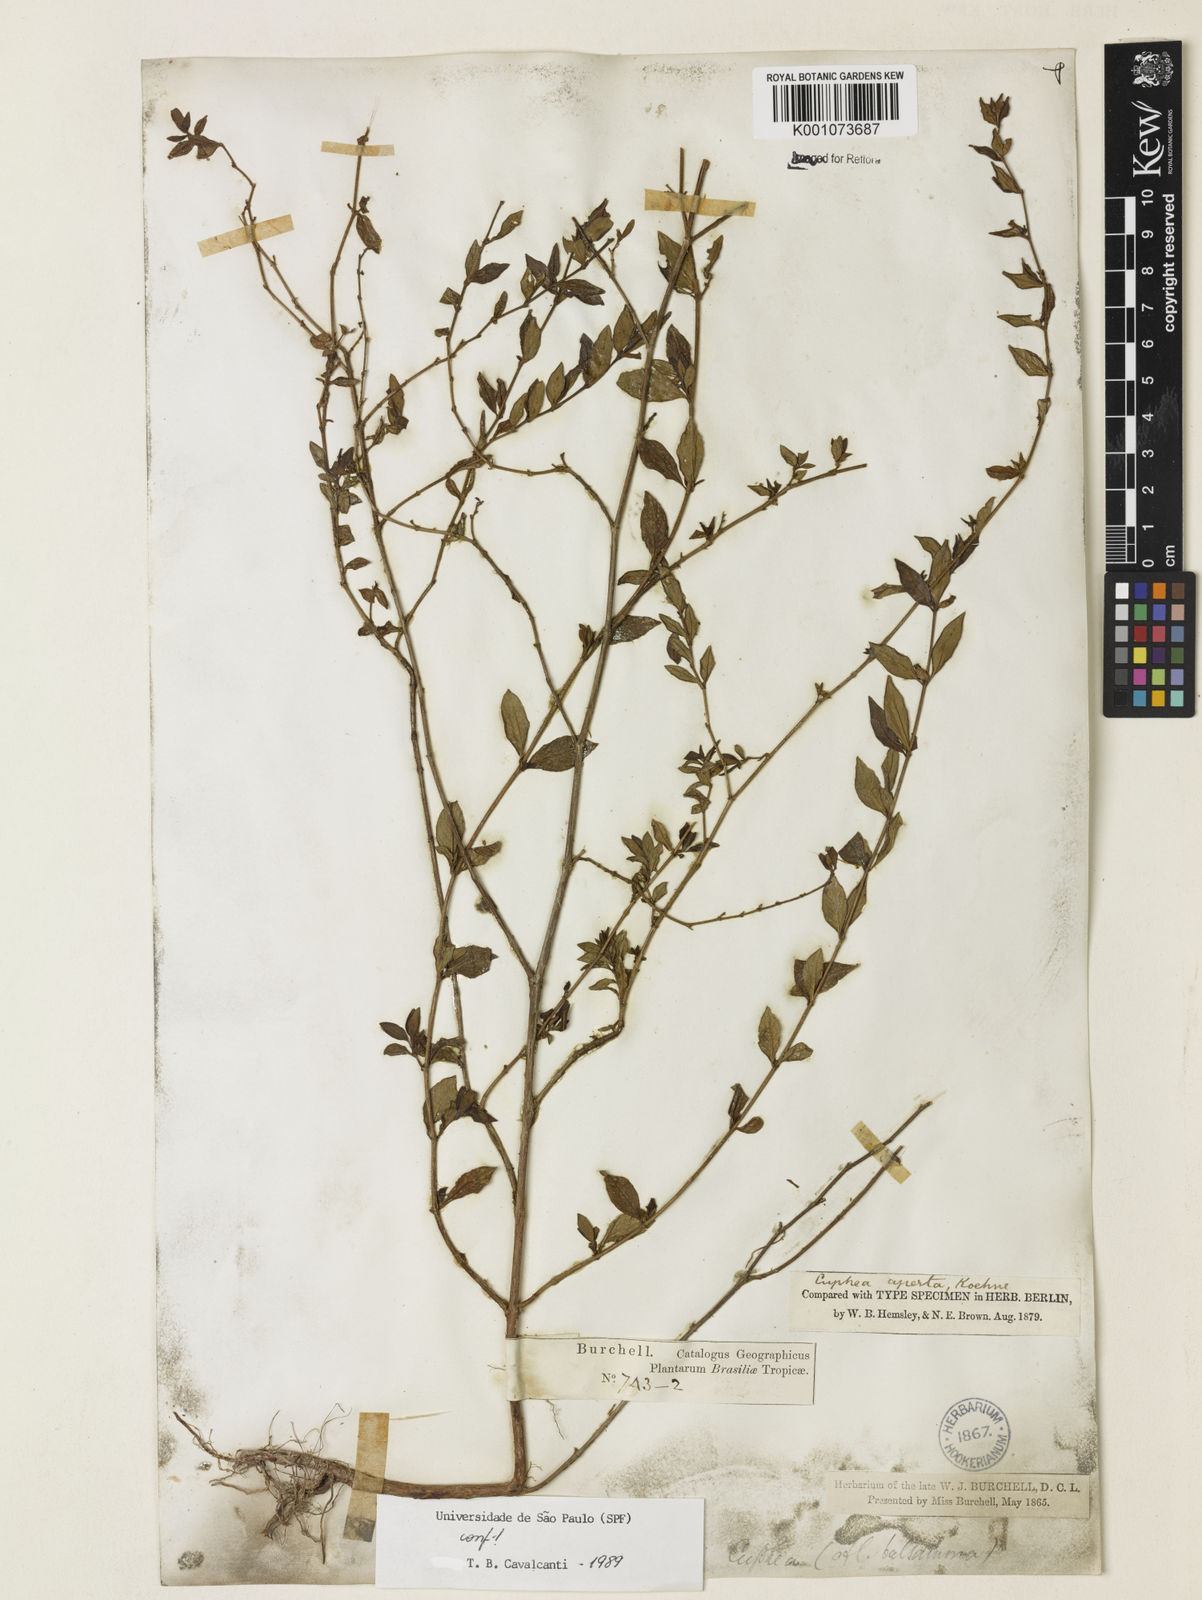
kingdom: Plantae
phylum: Tracheophyta
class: Magnoliopsida
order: Myrtales
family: Lythraceae
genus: Cuphea
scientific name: Cuphea aperta
